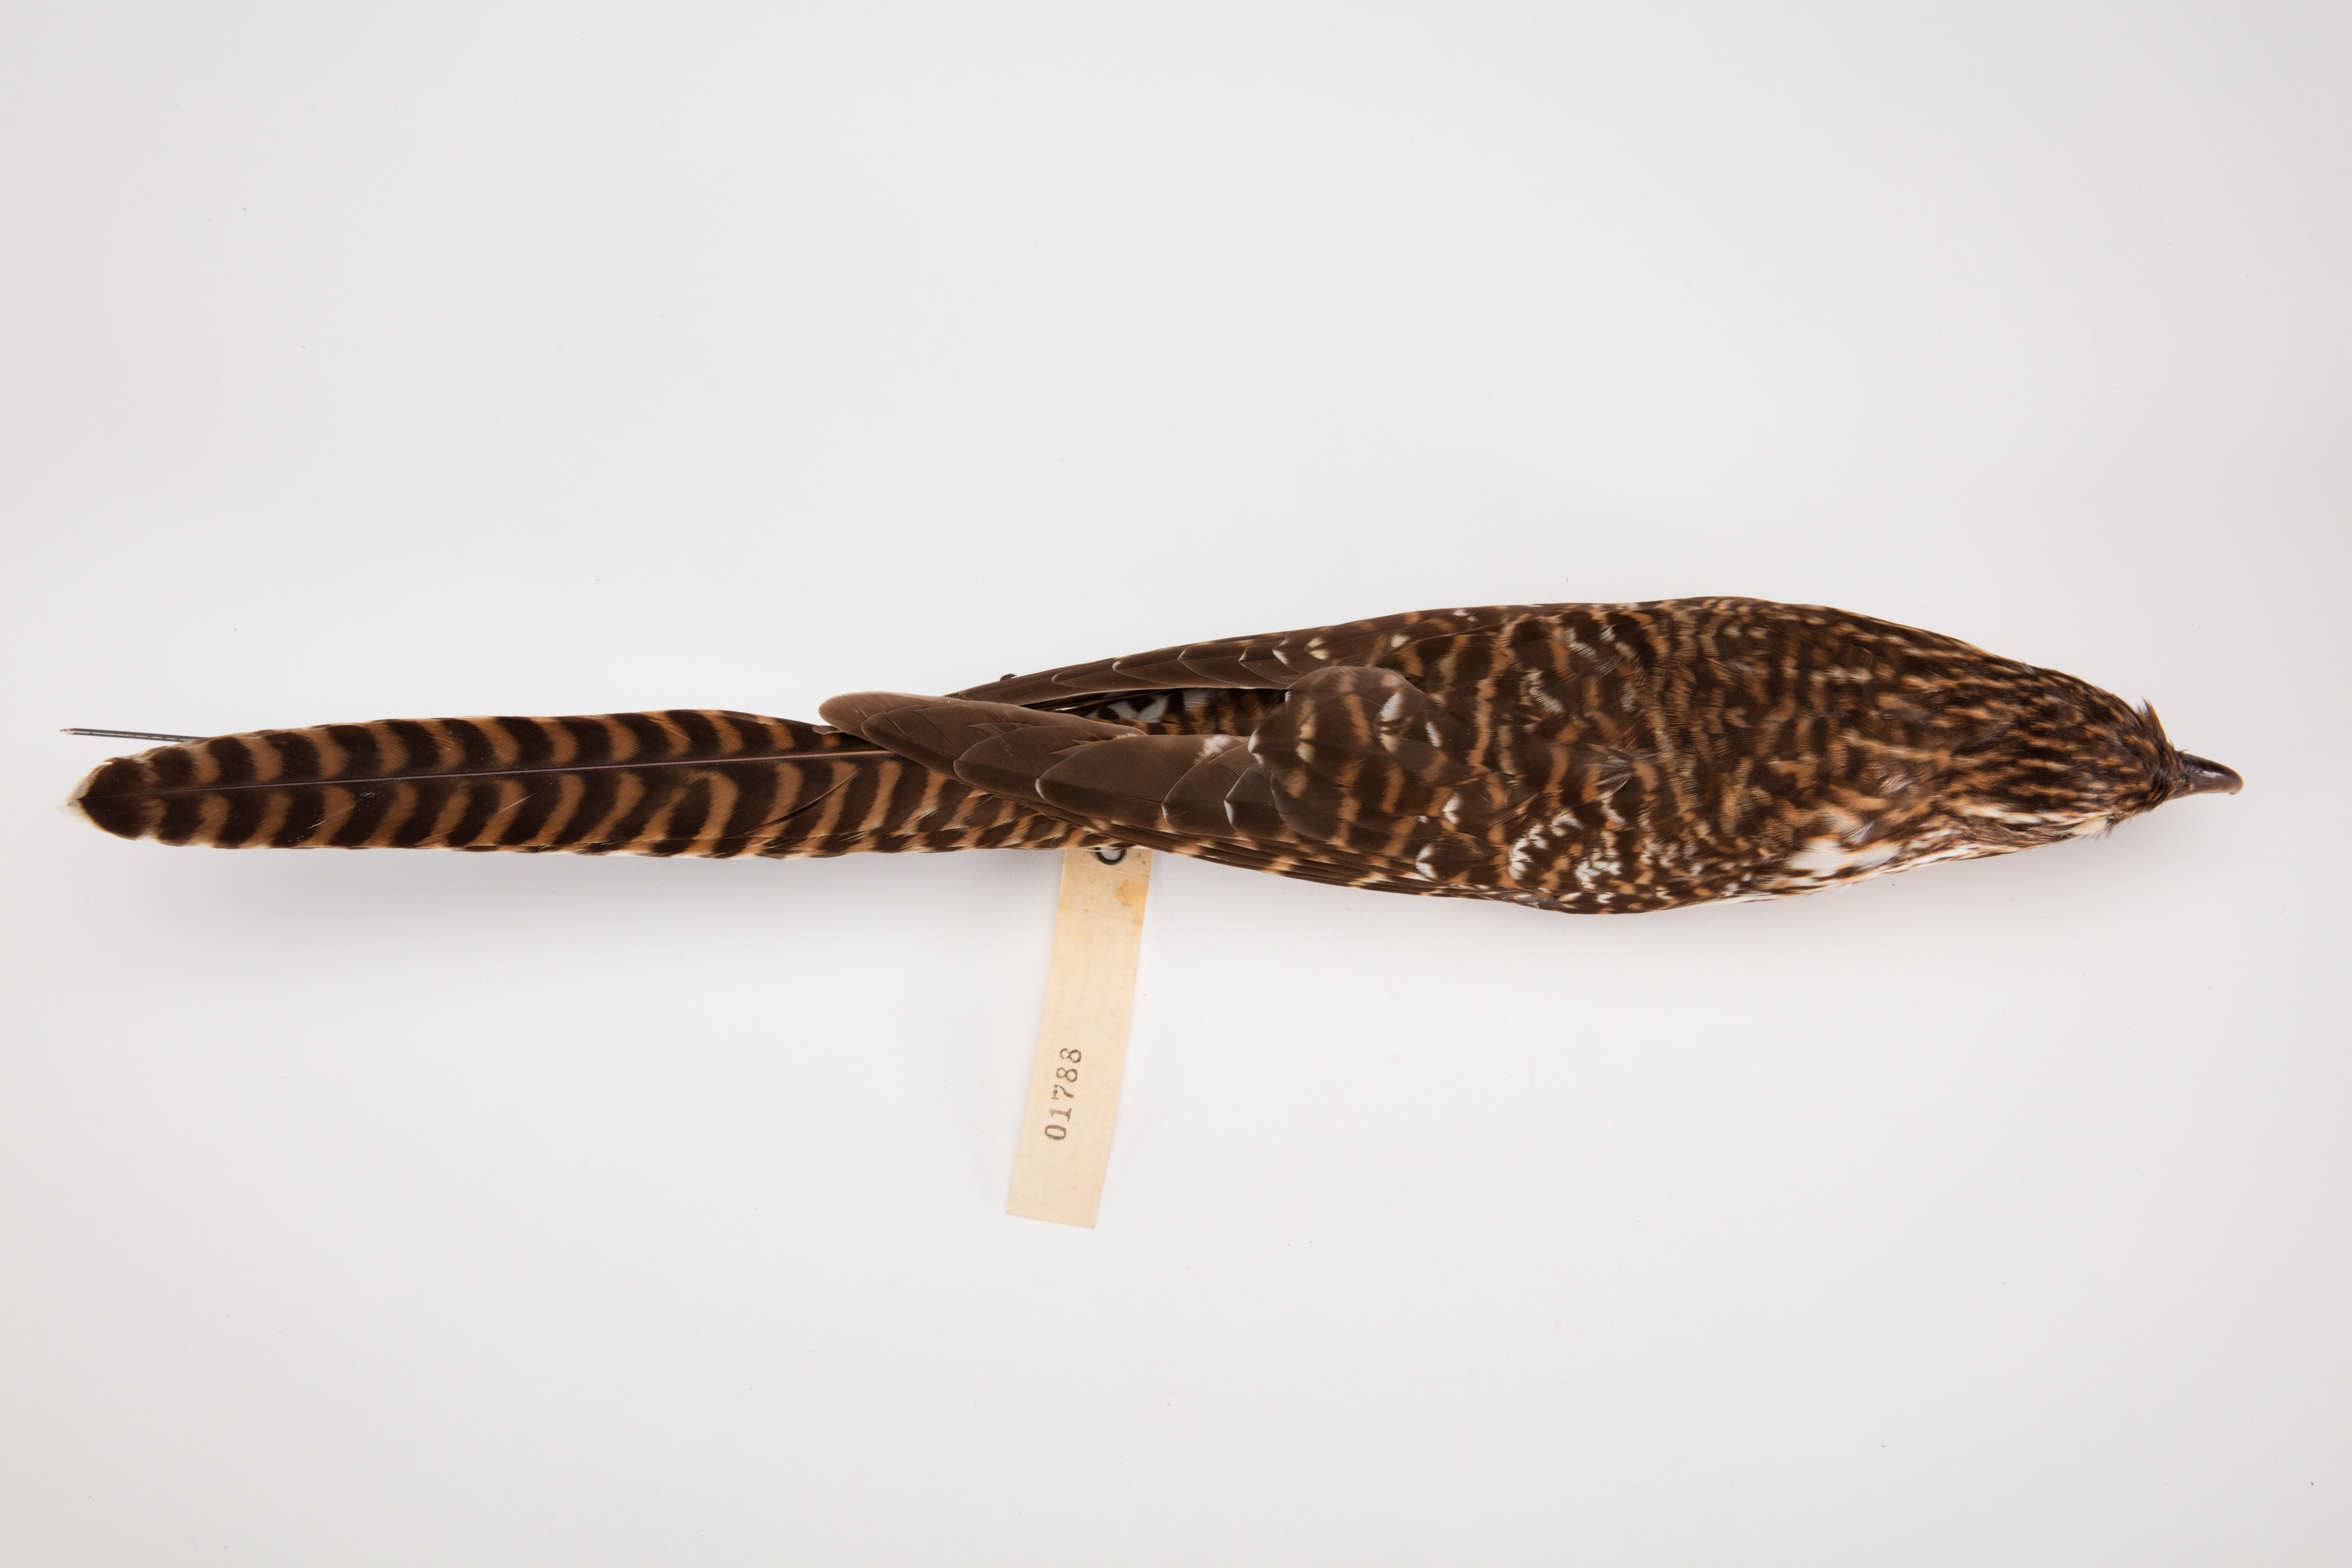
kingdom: Animalia
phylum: Chordata
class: Aves
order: Cuculiformes
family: Cuculidae
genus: Urodynamis
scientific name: Urodynamis taitensis
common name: Long-tailed koel
